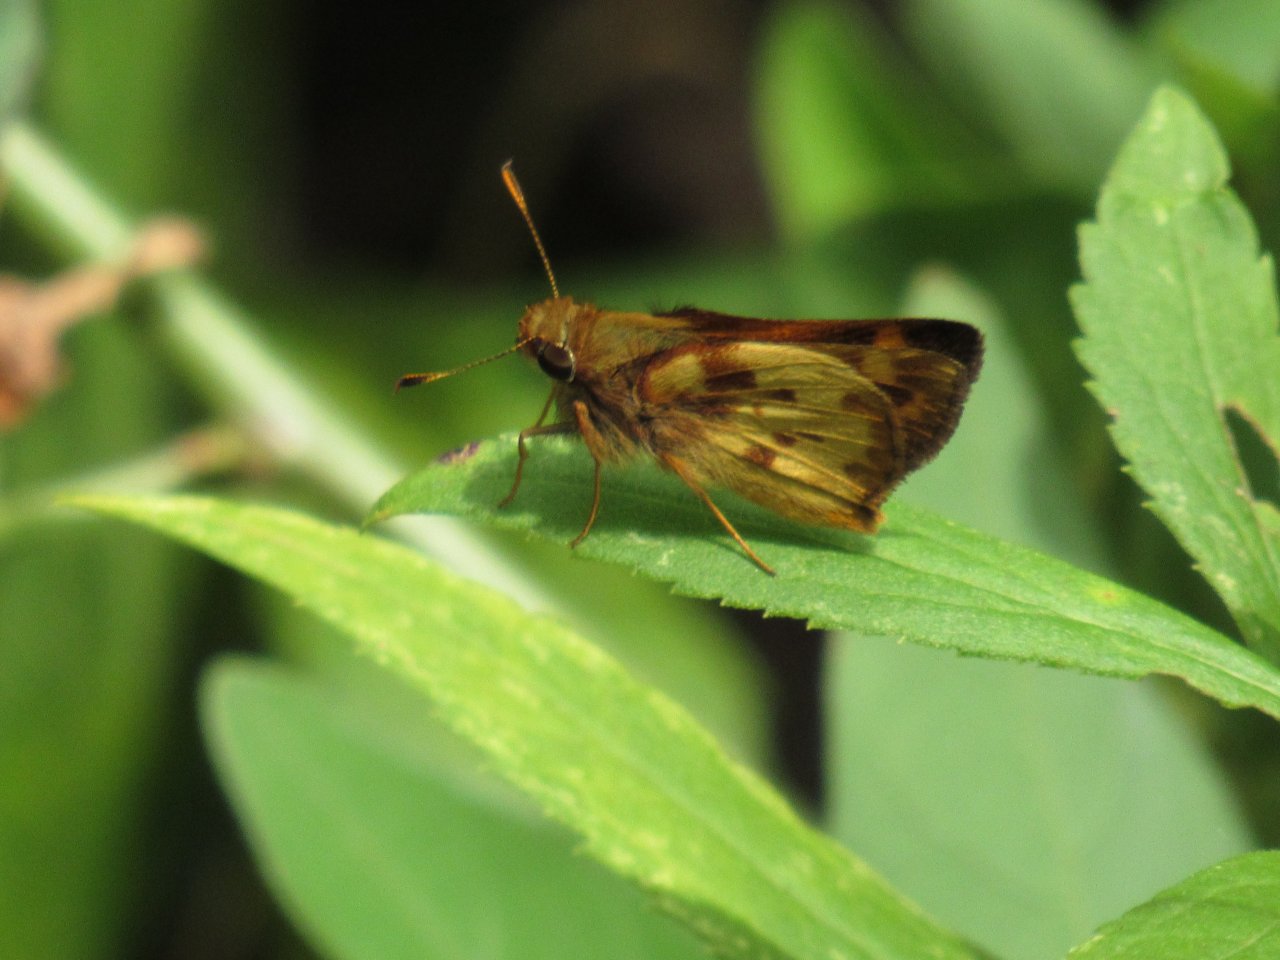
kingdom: Animalia
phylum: Arthropoda
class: Insecta
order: Lepidoptera
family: Hesperiidae
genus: Lon
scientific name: Lon zabulon
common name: Zabulon Skipper
